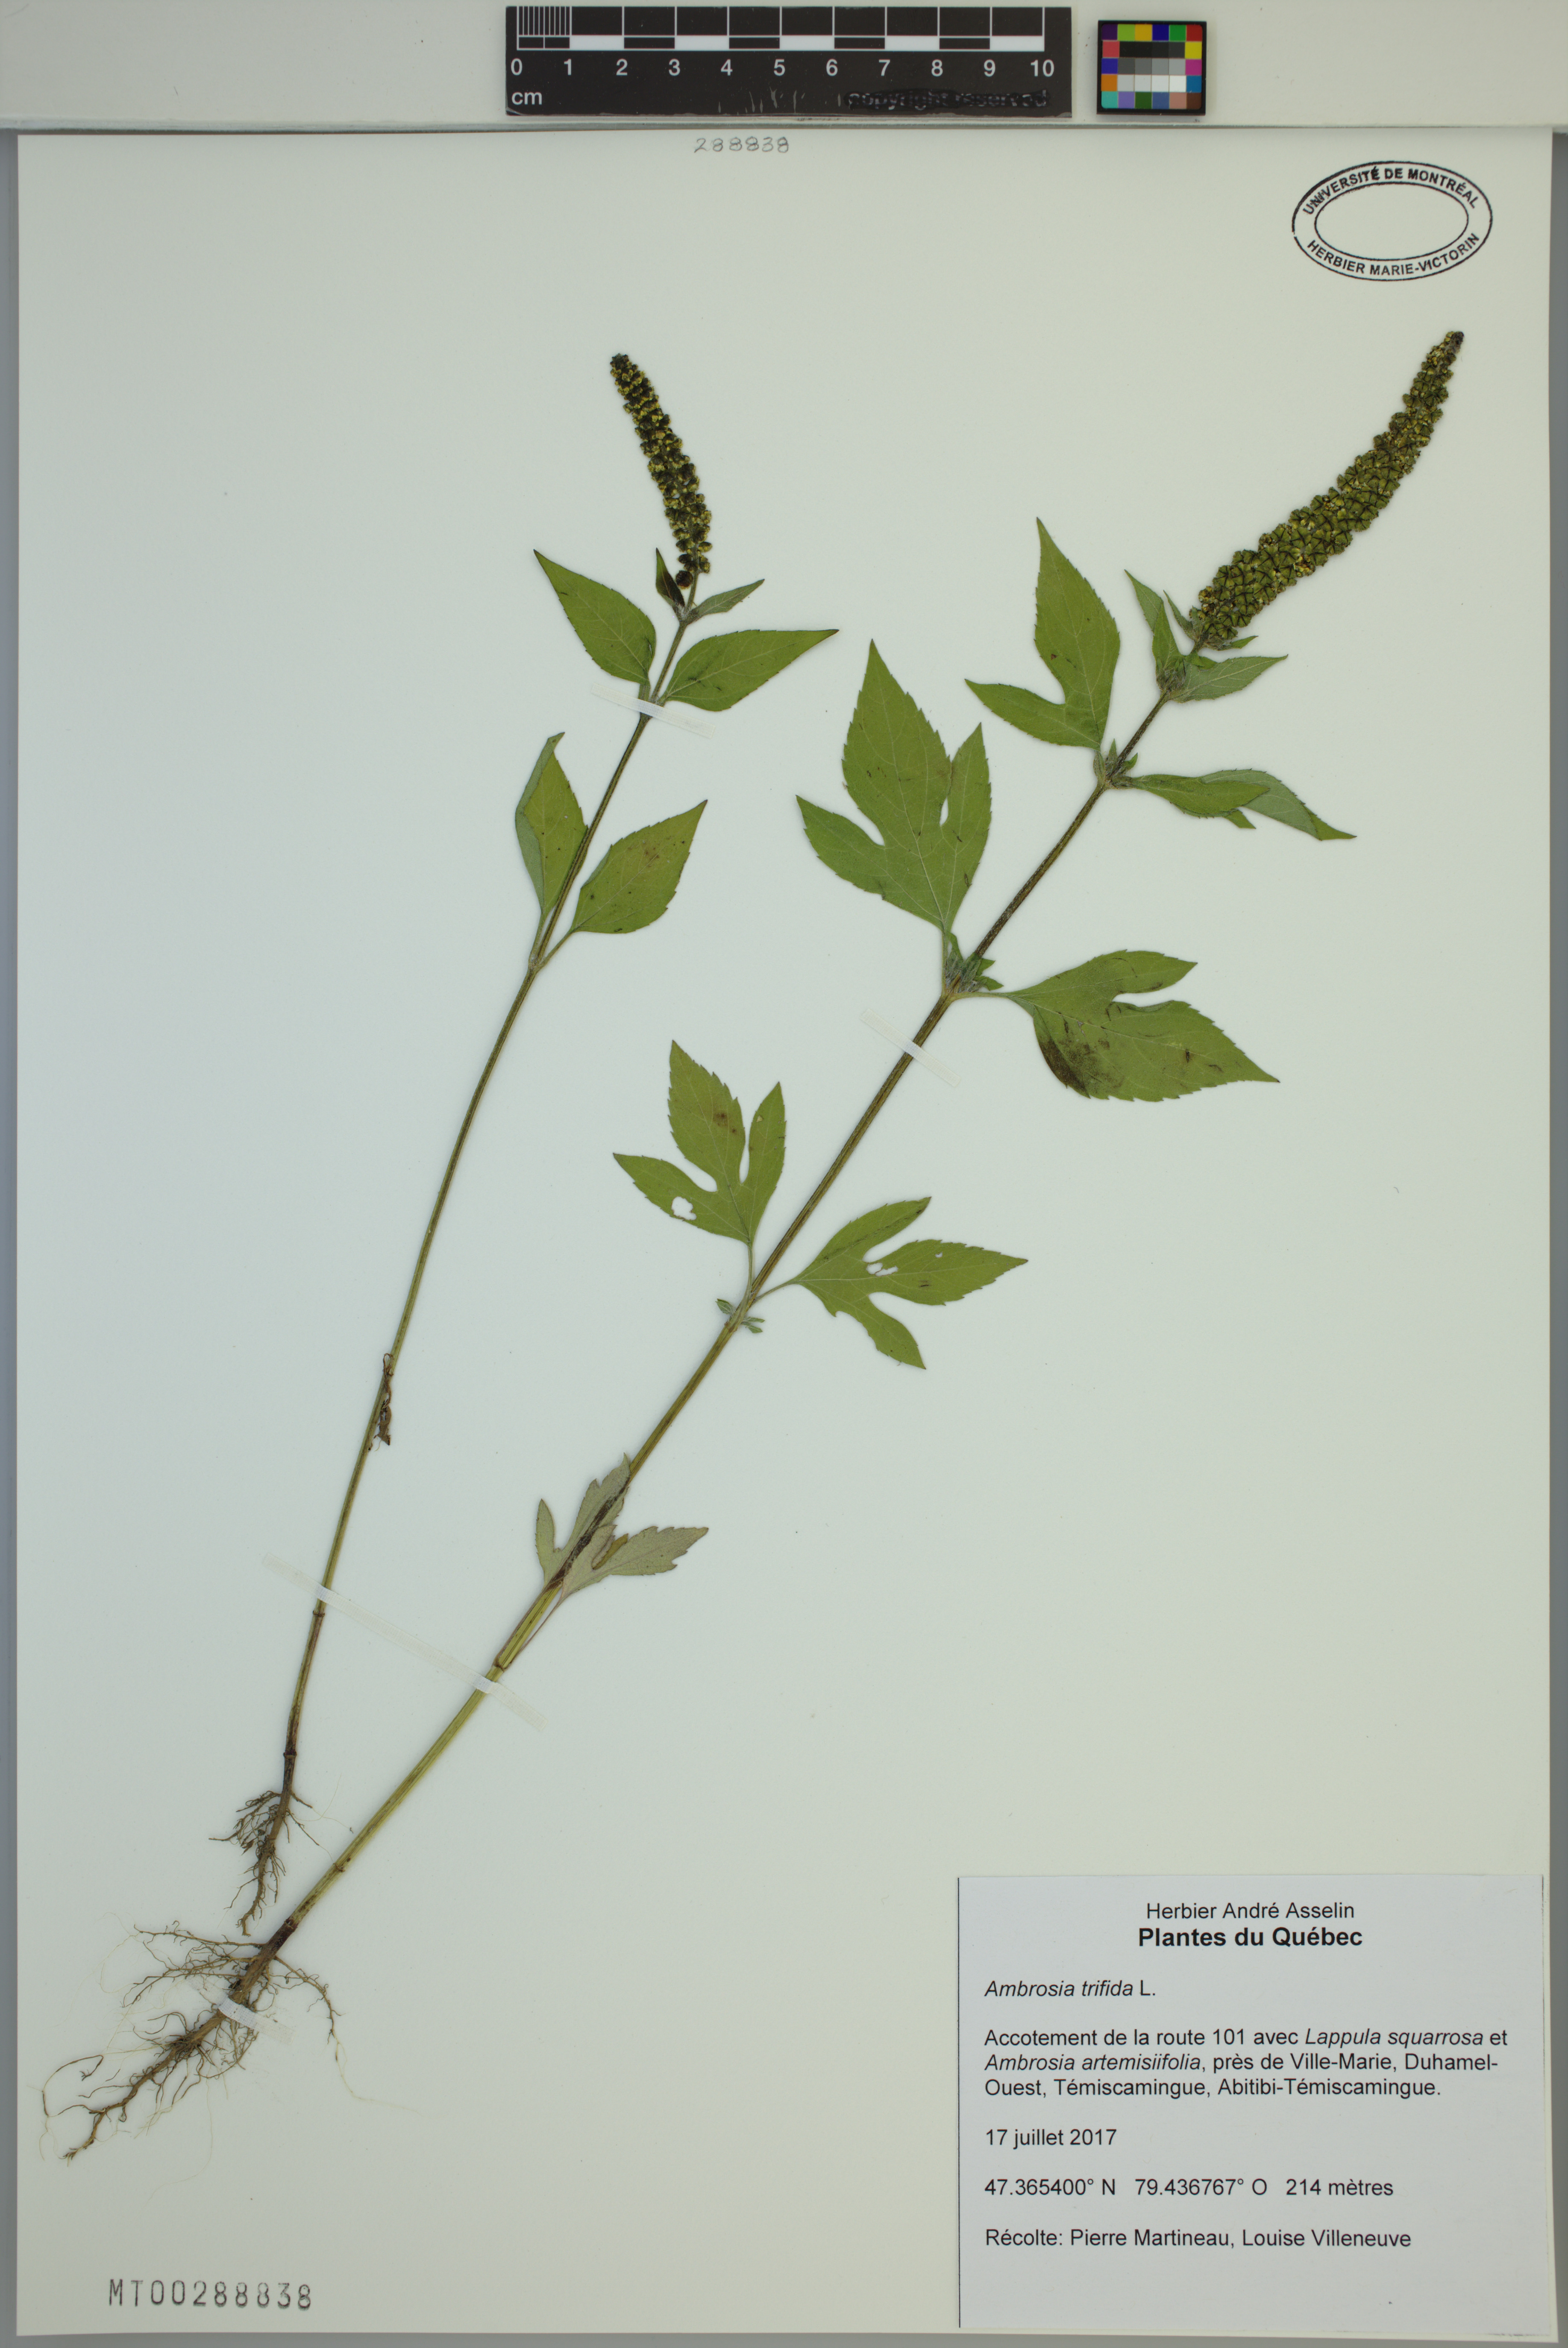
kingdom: Plantae
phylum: Tracheophyta
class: Magnoliopsida
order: Asterales
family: Asteraceae
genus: Ambrosia
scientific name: Ambrosia trifida
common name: Giant ragweed
